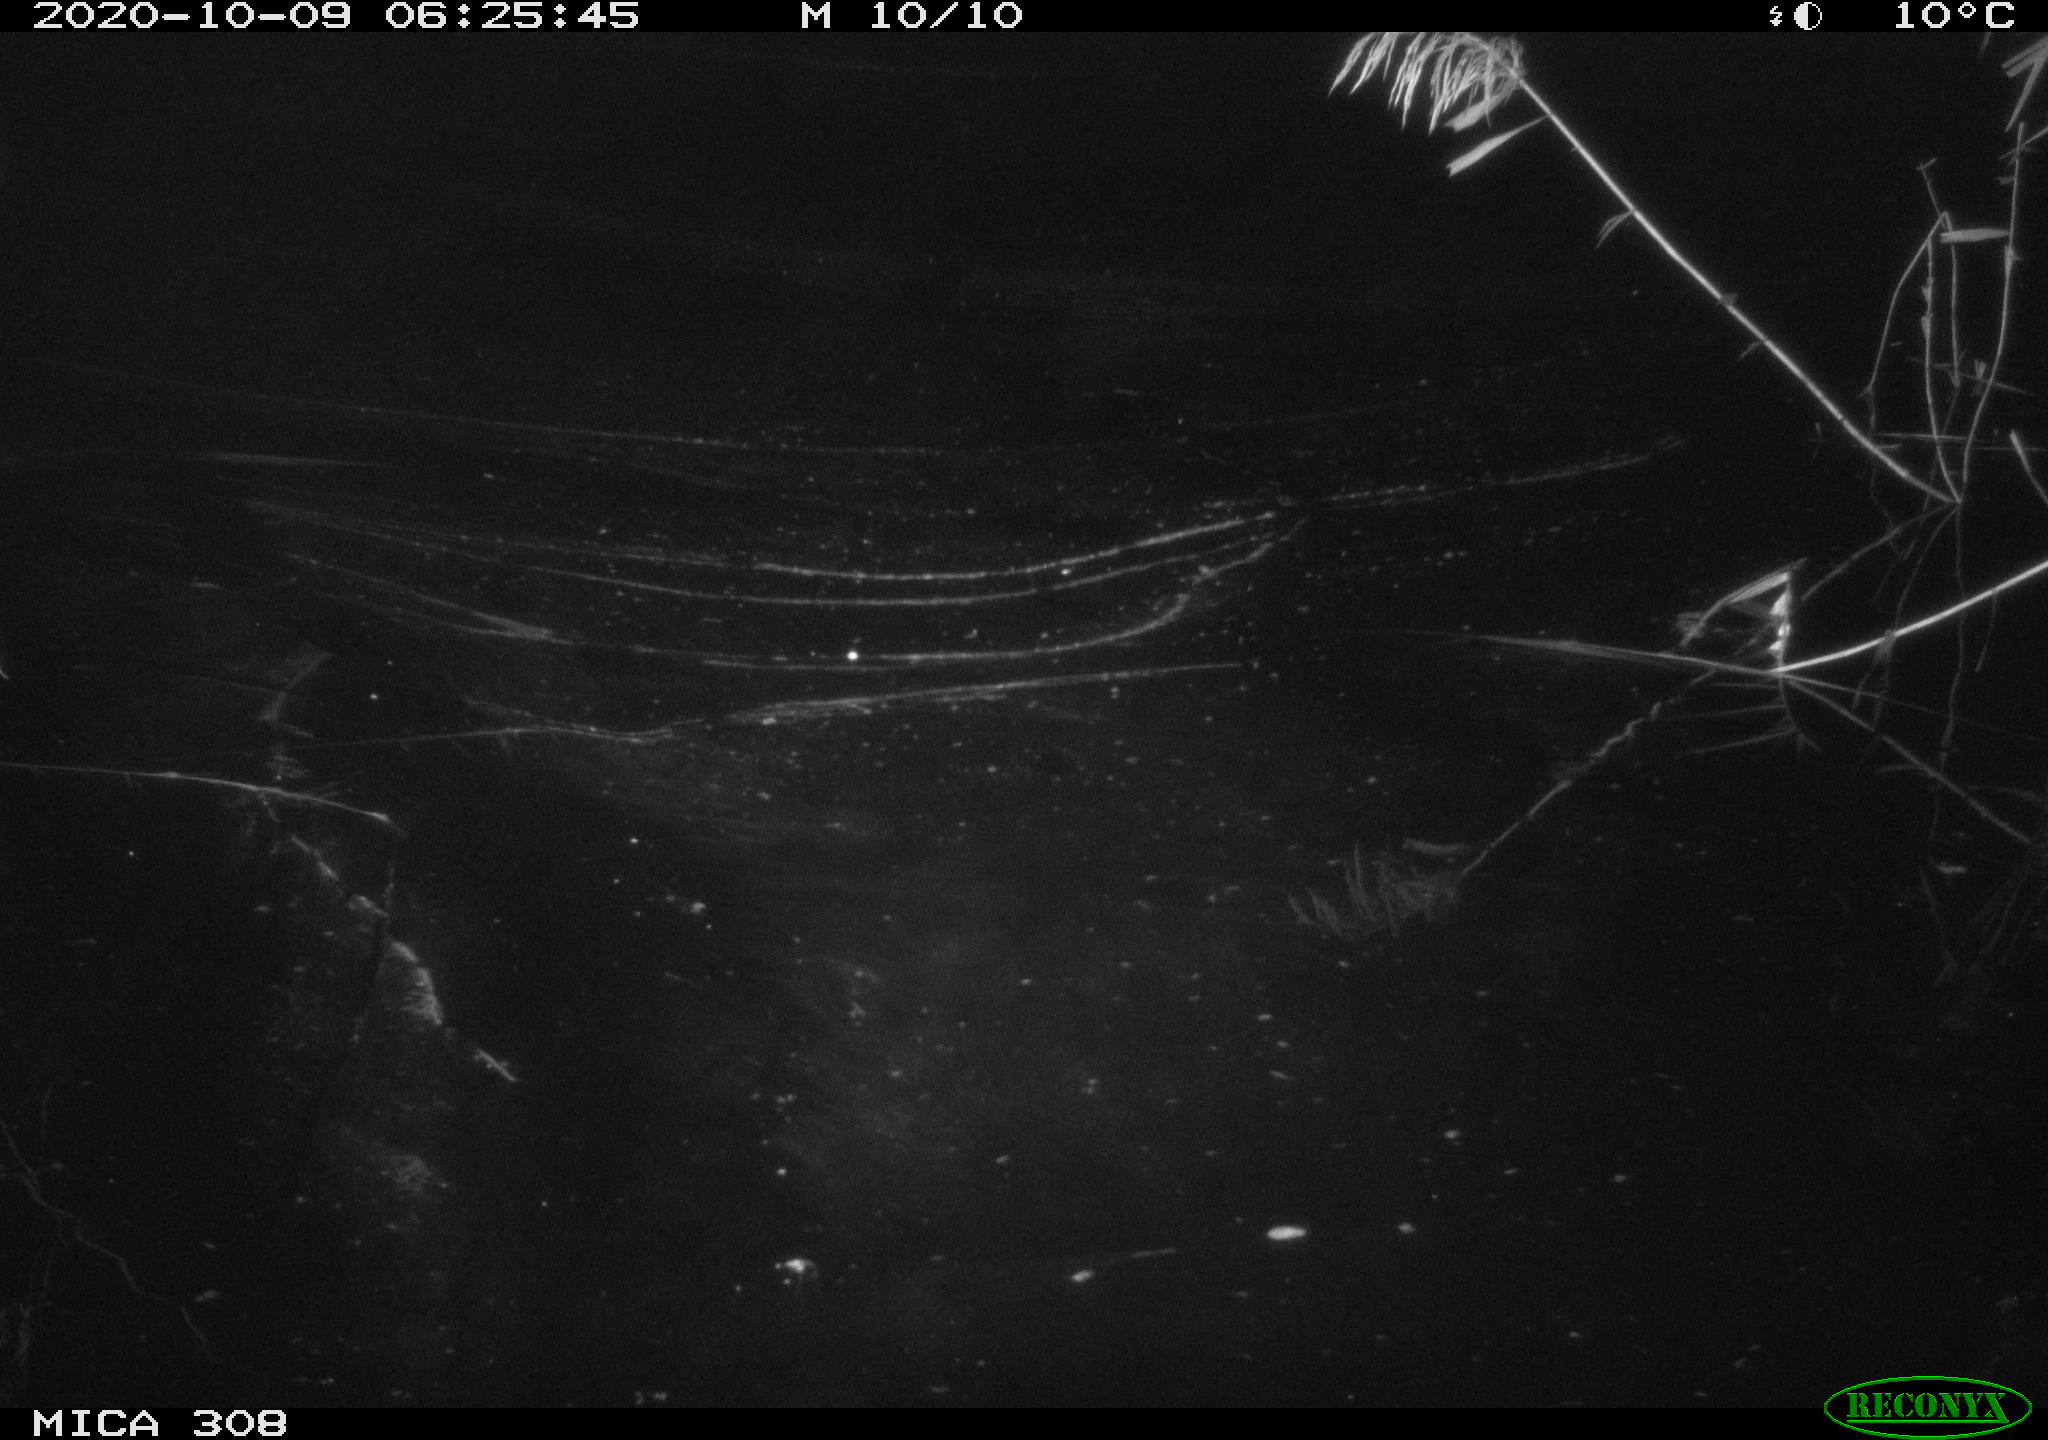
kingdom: Animalia
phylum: Chordata
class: Aves
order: Anseriformes
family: Anatidae
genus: Anas
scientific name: Anas platyrhynchos
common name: Mallard
